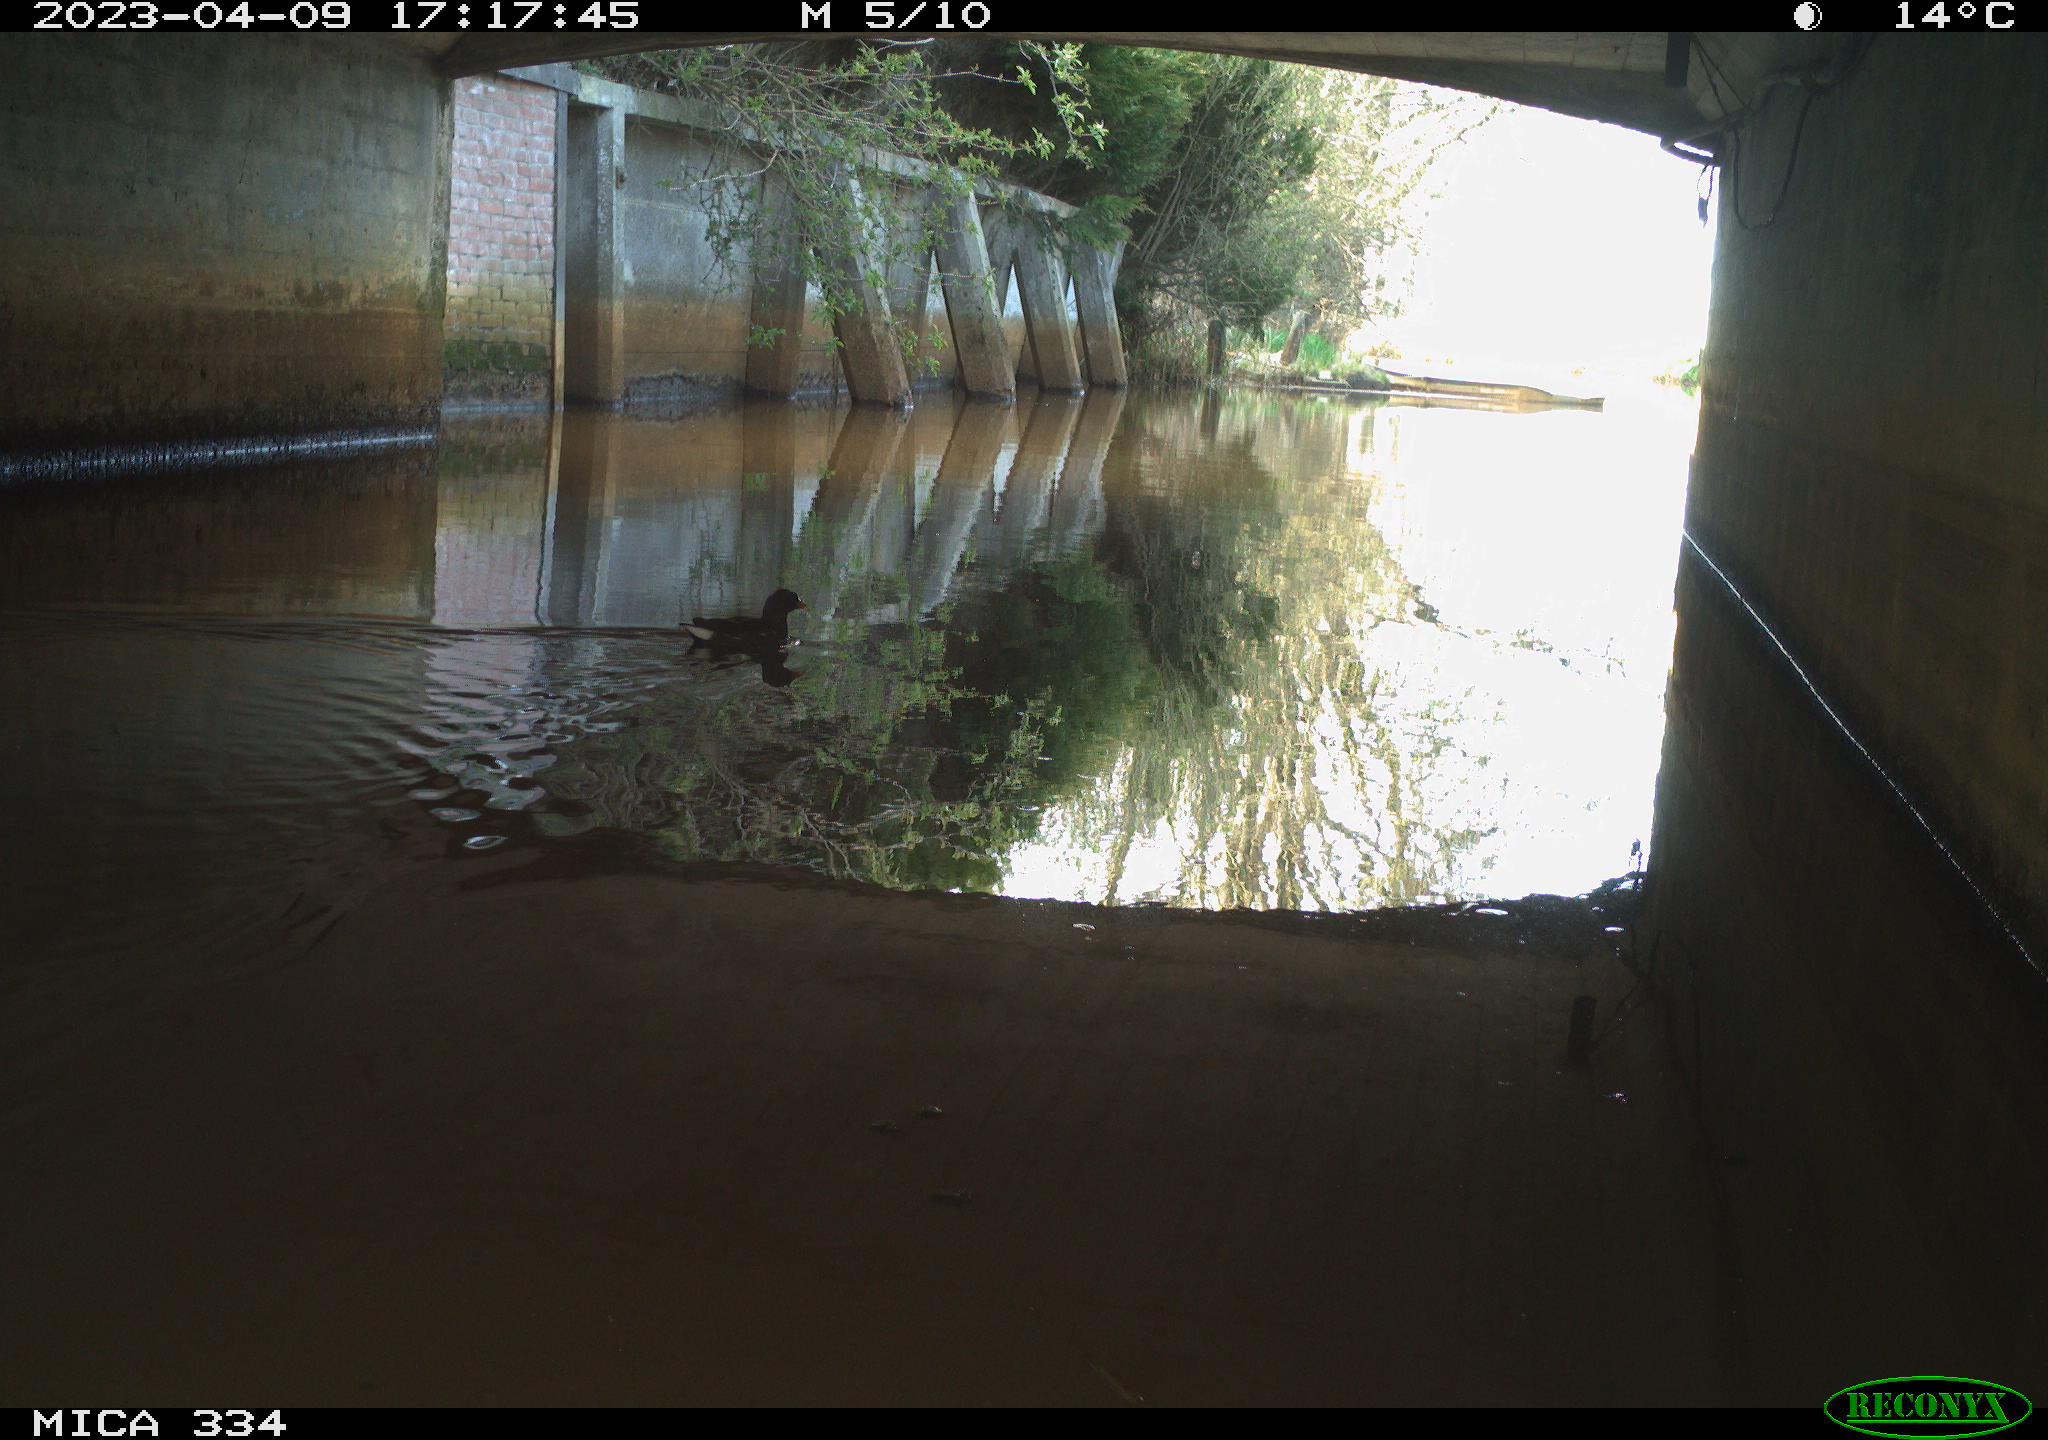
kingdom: Animalia
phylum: Chordata
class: Aves
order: Gruiformes
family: Rallidae
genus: Gallinula
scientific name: Gallinula chloropus
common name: Common moorhen
